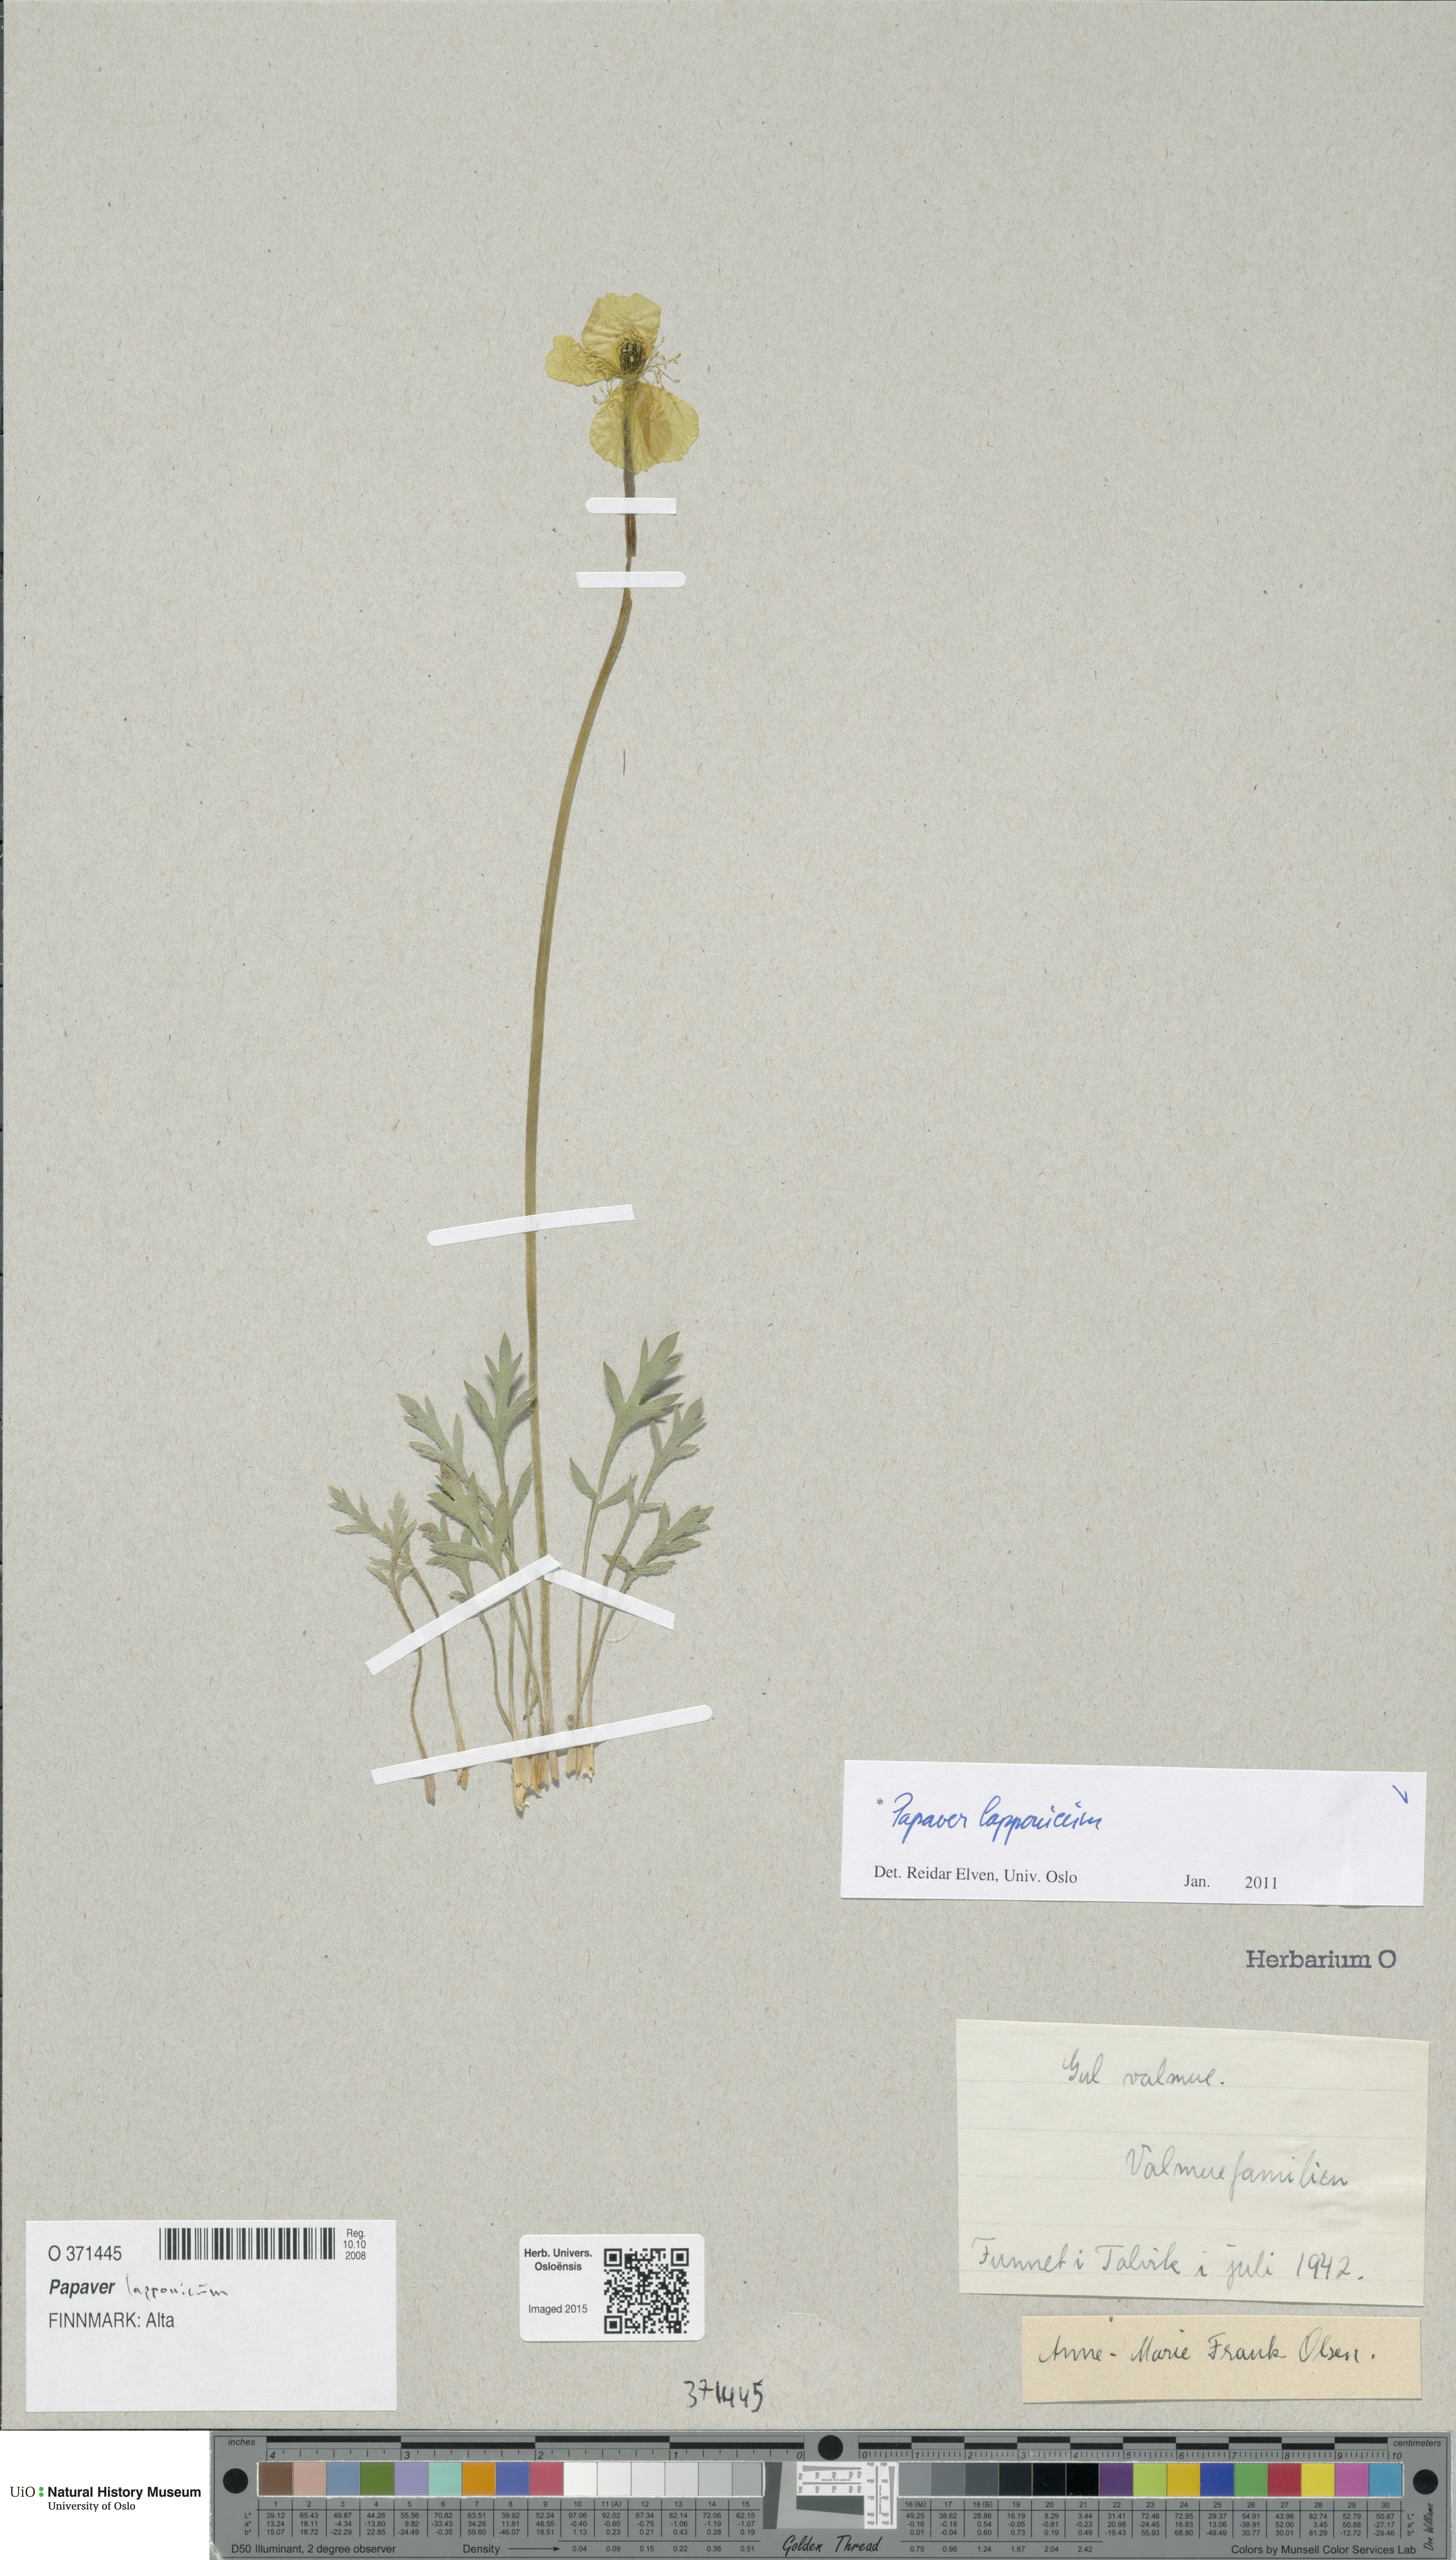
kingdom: Plantae
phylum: Tracheophyta
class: Magnoliopsida
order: Ranunculales
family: Papaveraceae
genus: Papaver
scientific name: Papaver lapponicum
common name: Lapland poppy
